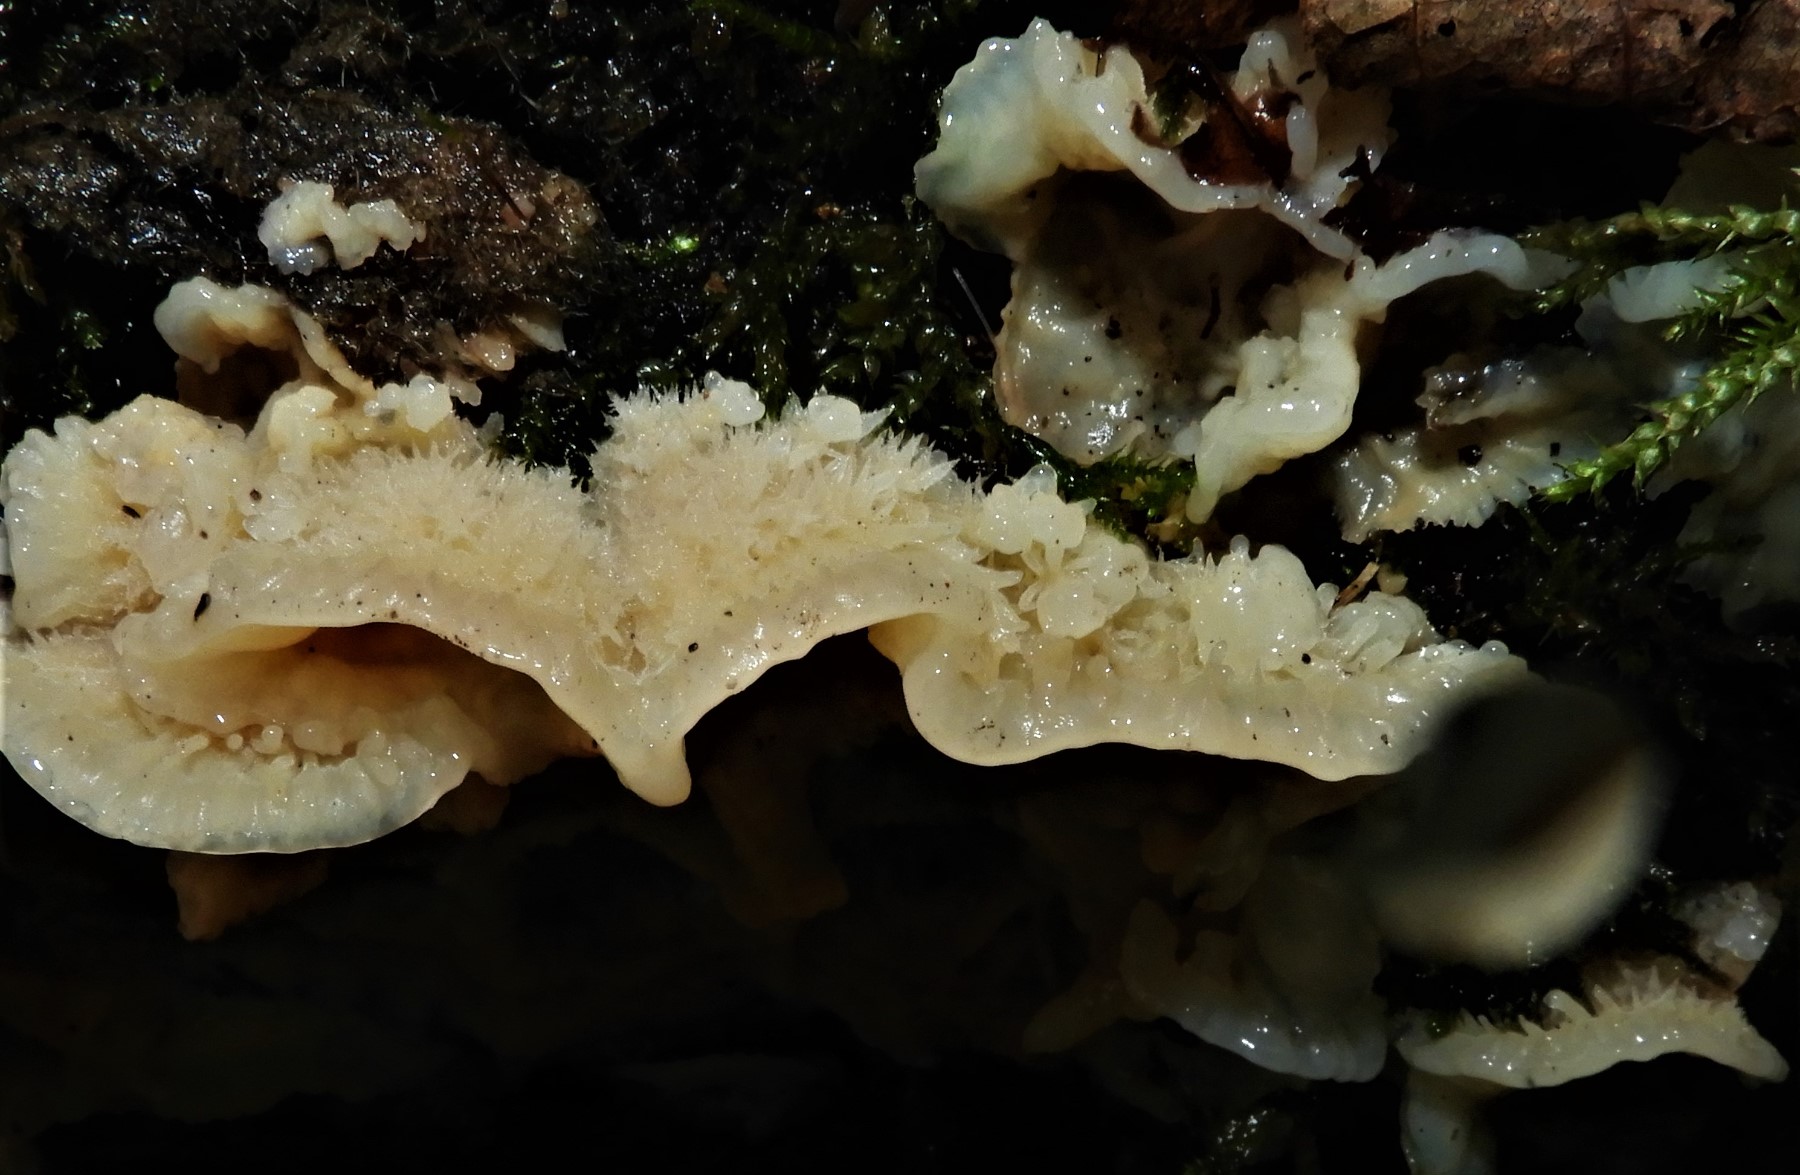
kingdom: Fungi
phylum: Basidiomycota
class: Agaricomycetes
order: Polyporales
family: Meruliaceae
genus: Phlebia
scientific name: Phlebia tremellosa
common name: bævrende åresvamp
